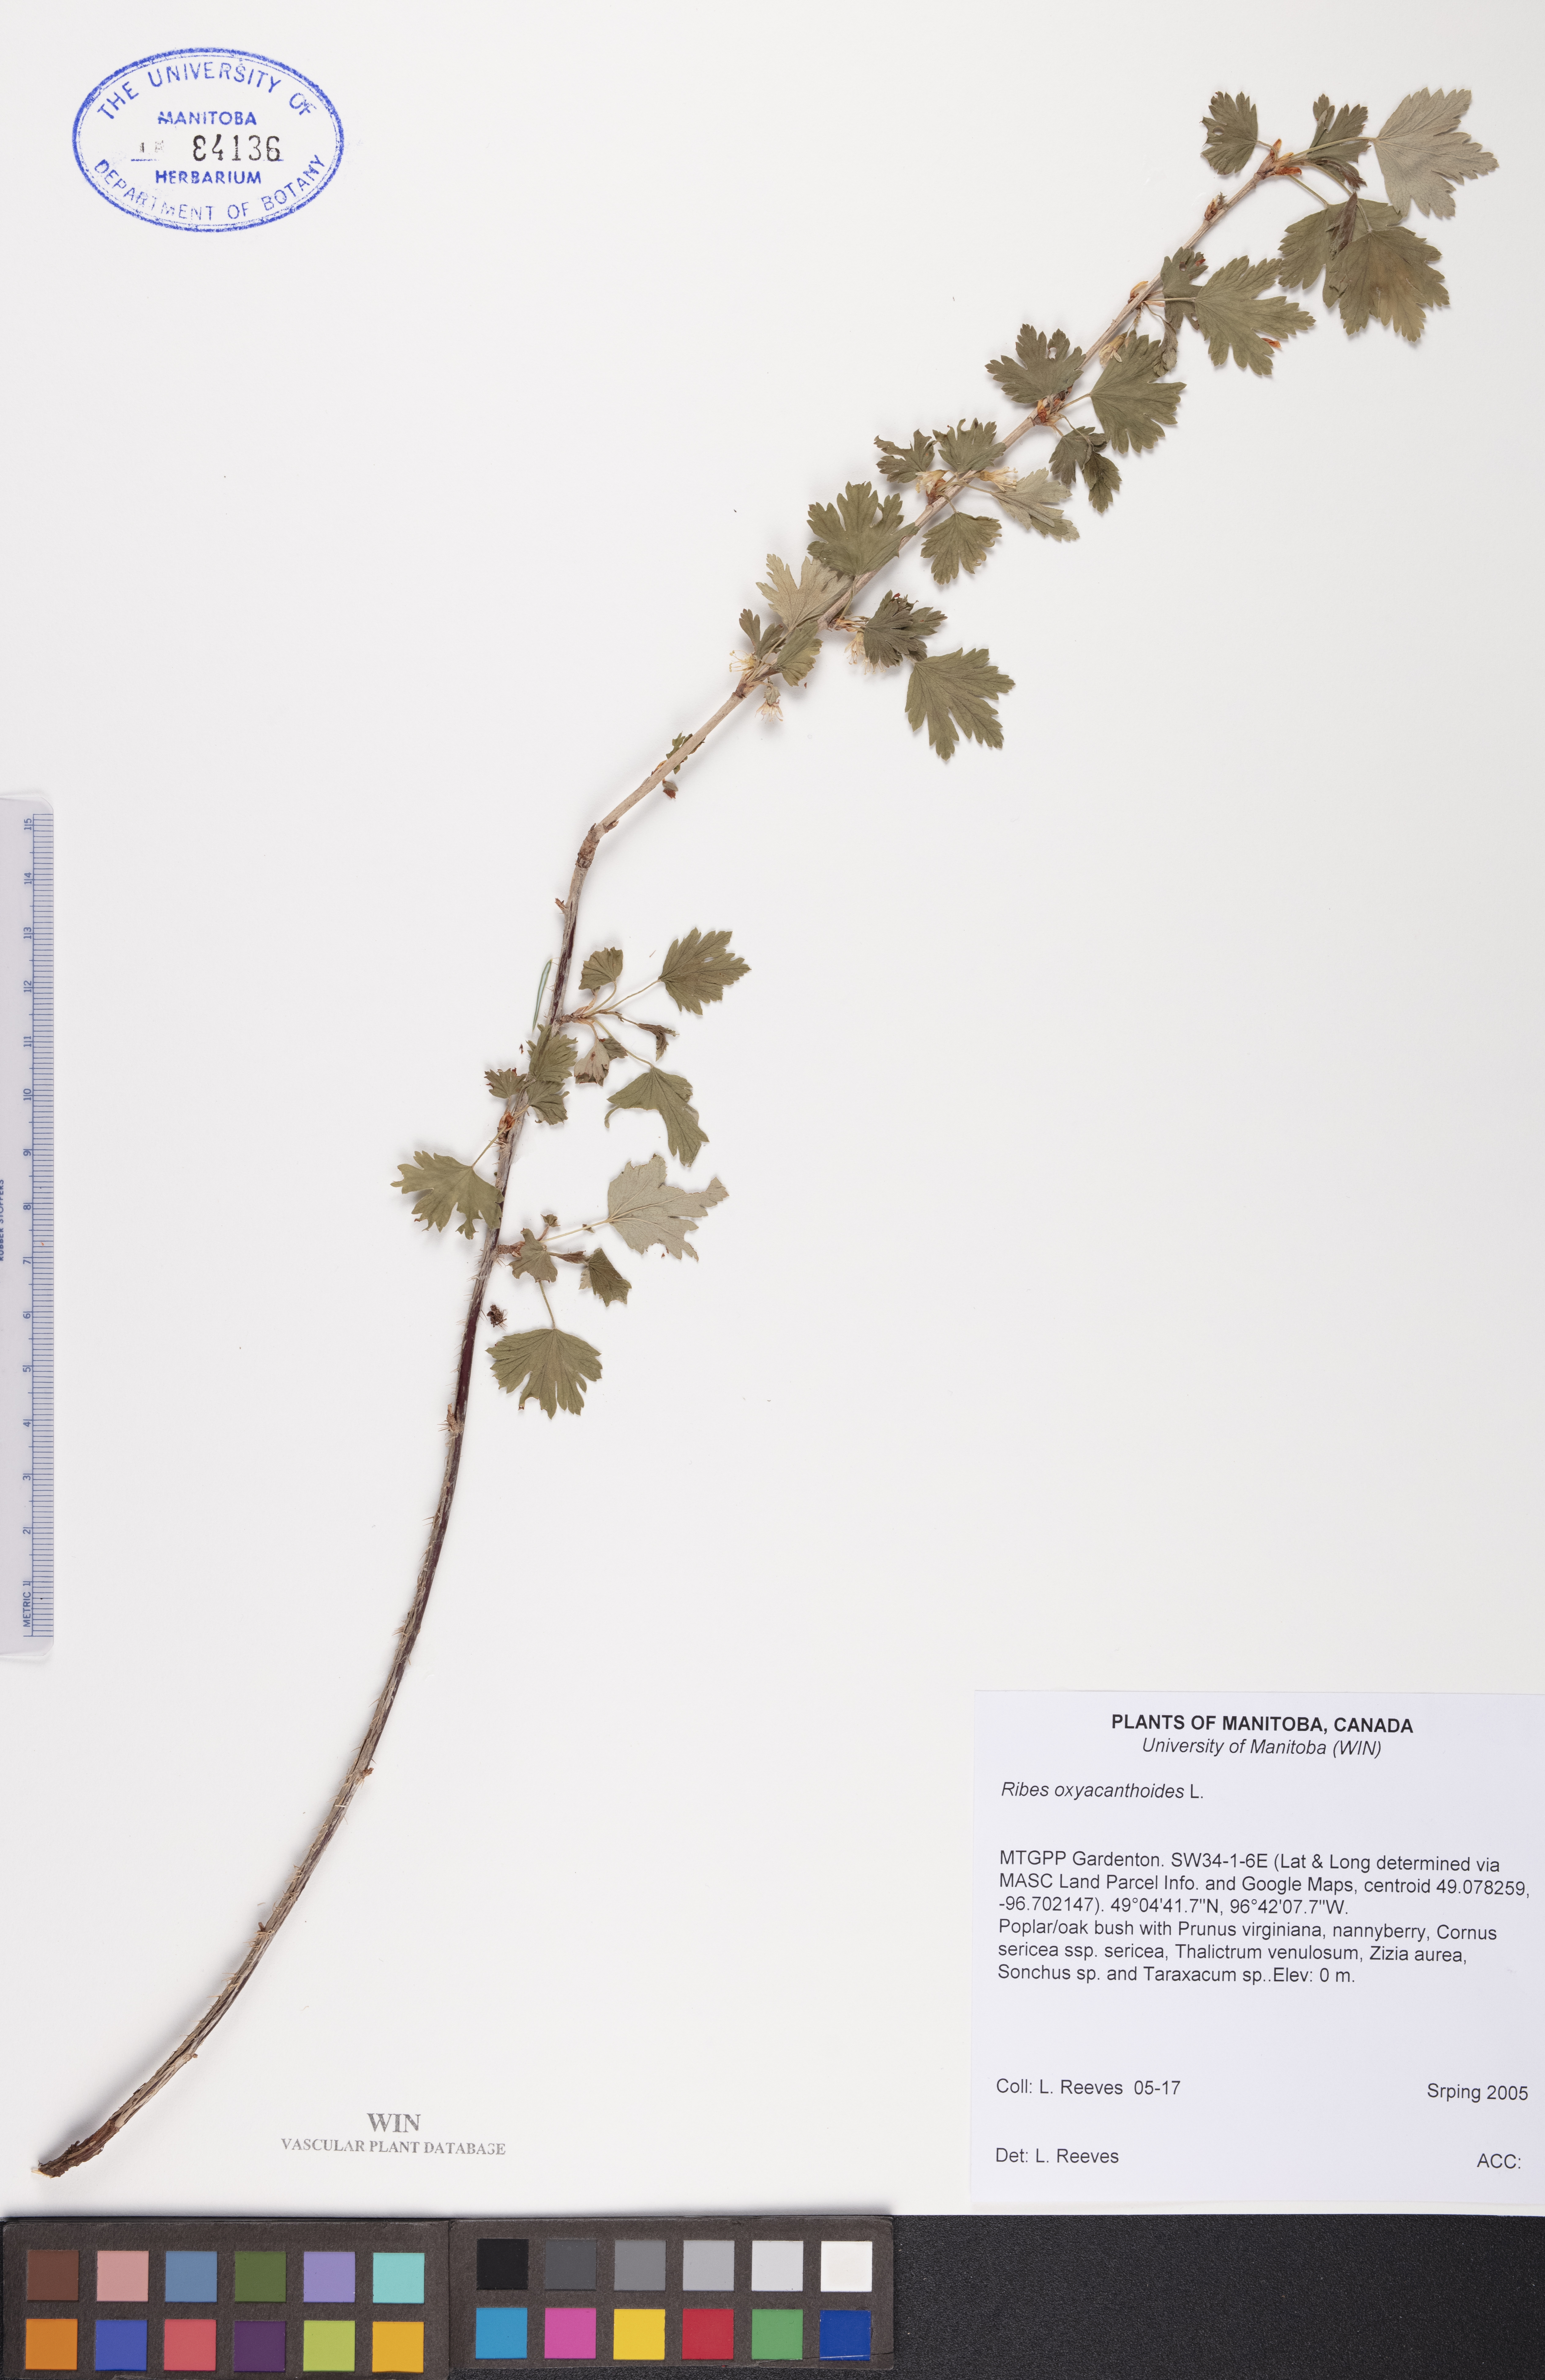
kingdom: Plantae
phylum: Tracheophyta
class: Magnoliopsida
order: Saxifragales
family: Grossulariaceae
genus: Ribes
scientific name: Ribes oxyacanthoides
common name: Northern gooseberry
